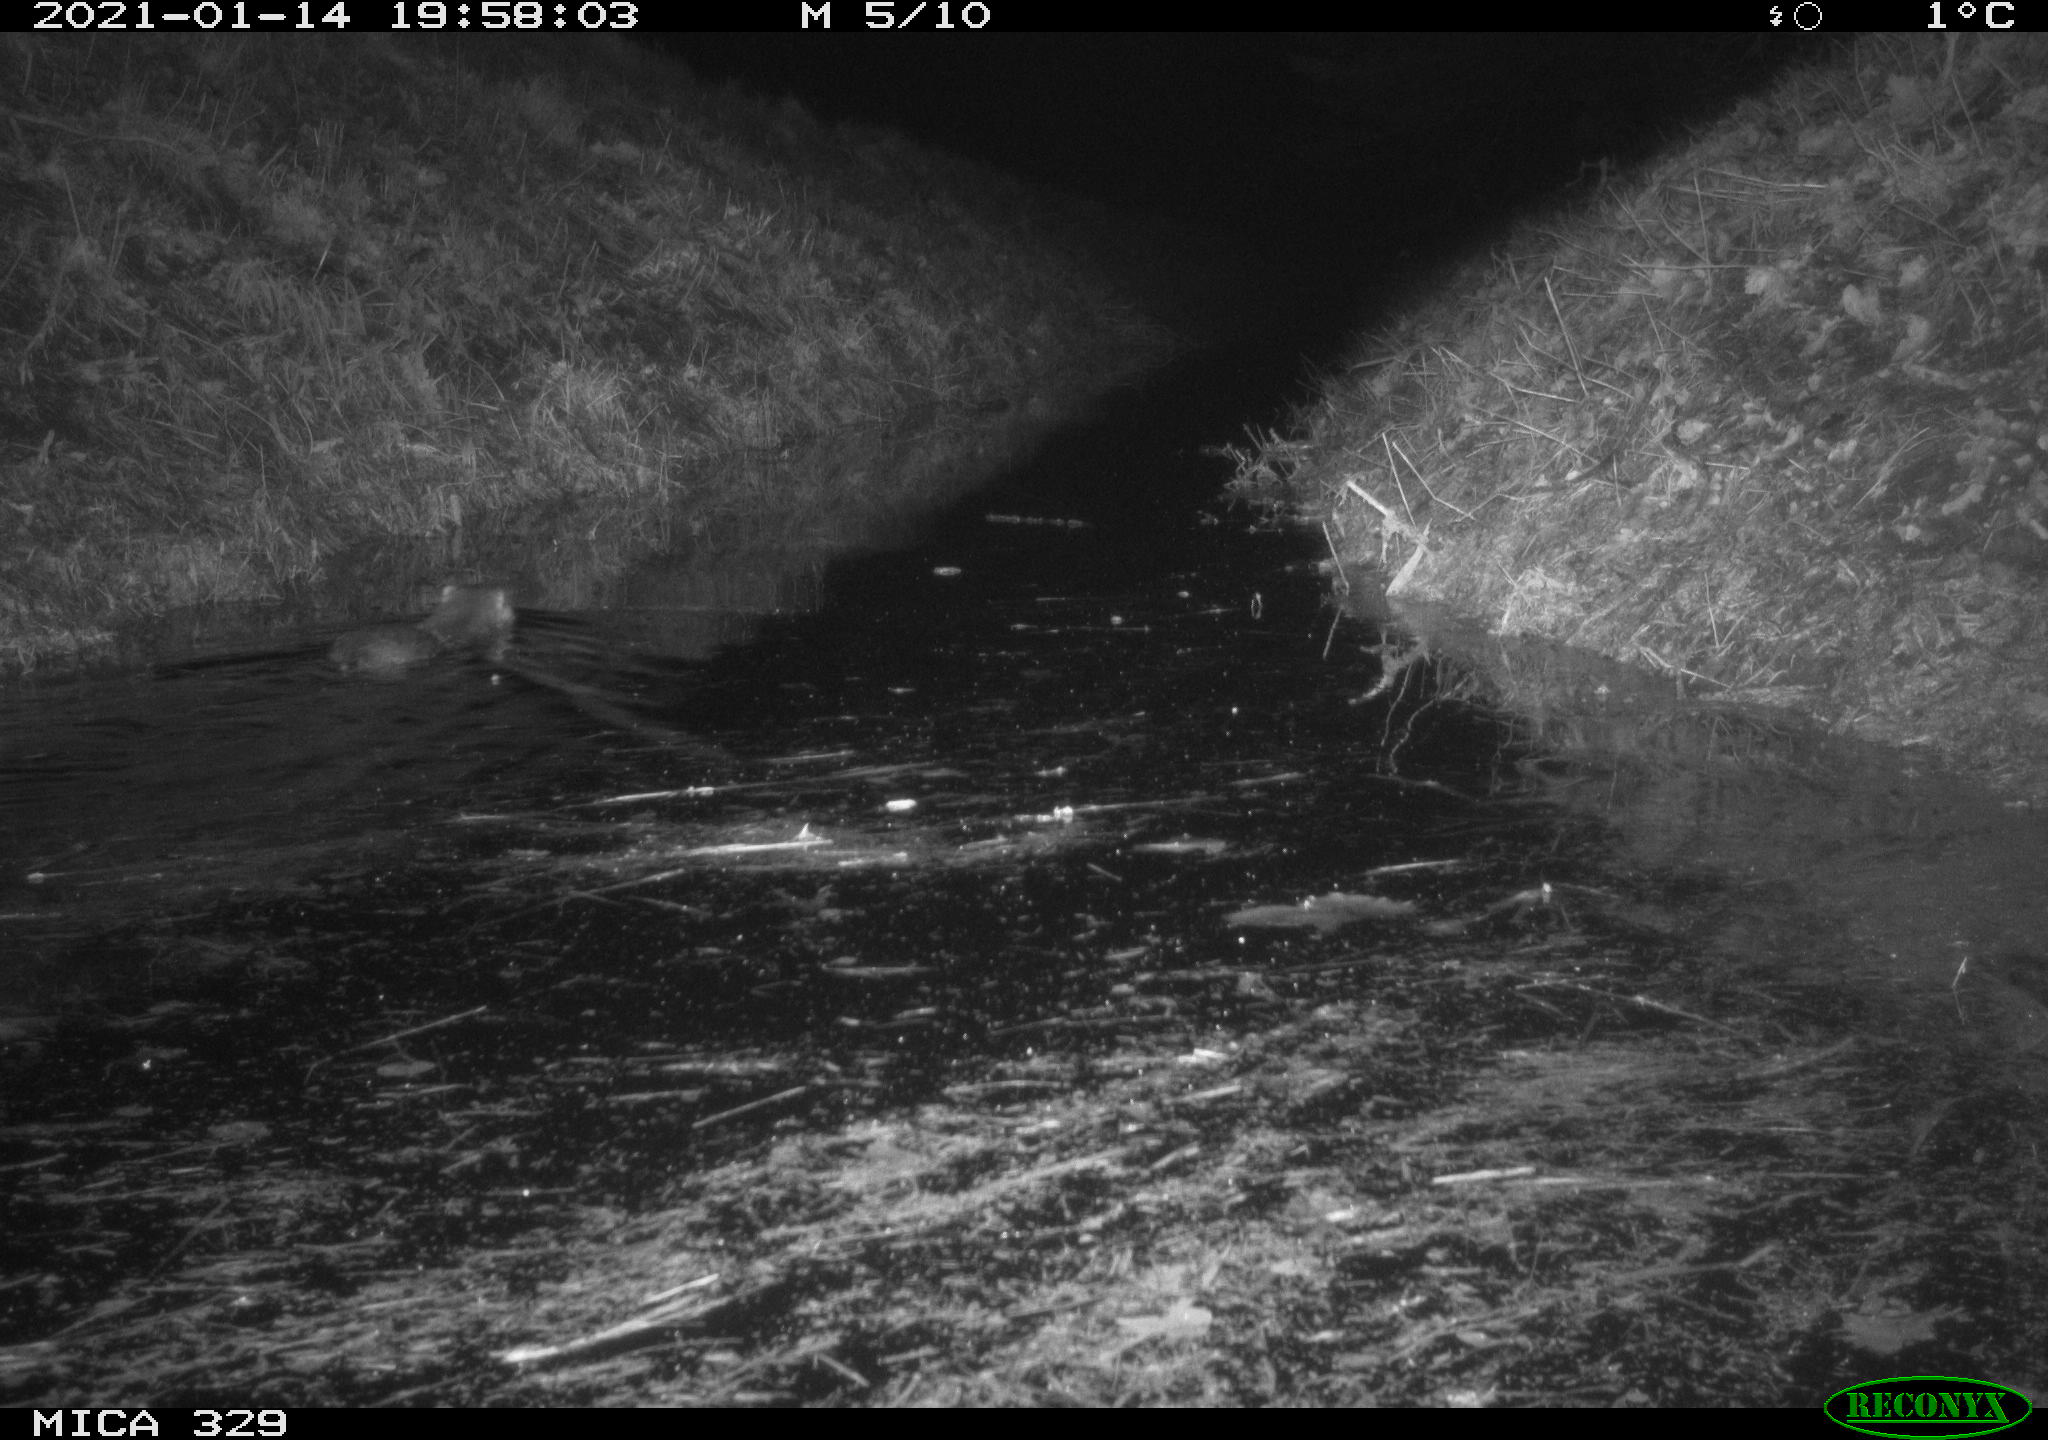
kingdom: Animalia
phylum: Chordata
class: Mammalia
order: Rodentia
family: Myocastoridae
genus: Myocastor
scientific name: Myocastor coypus
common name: Coypu
